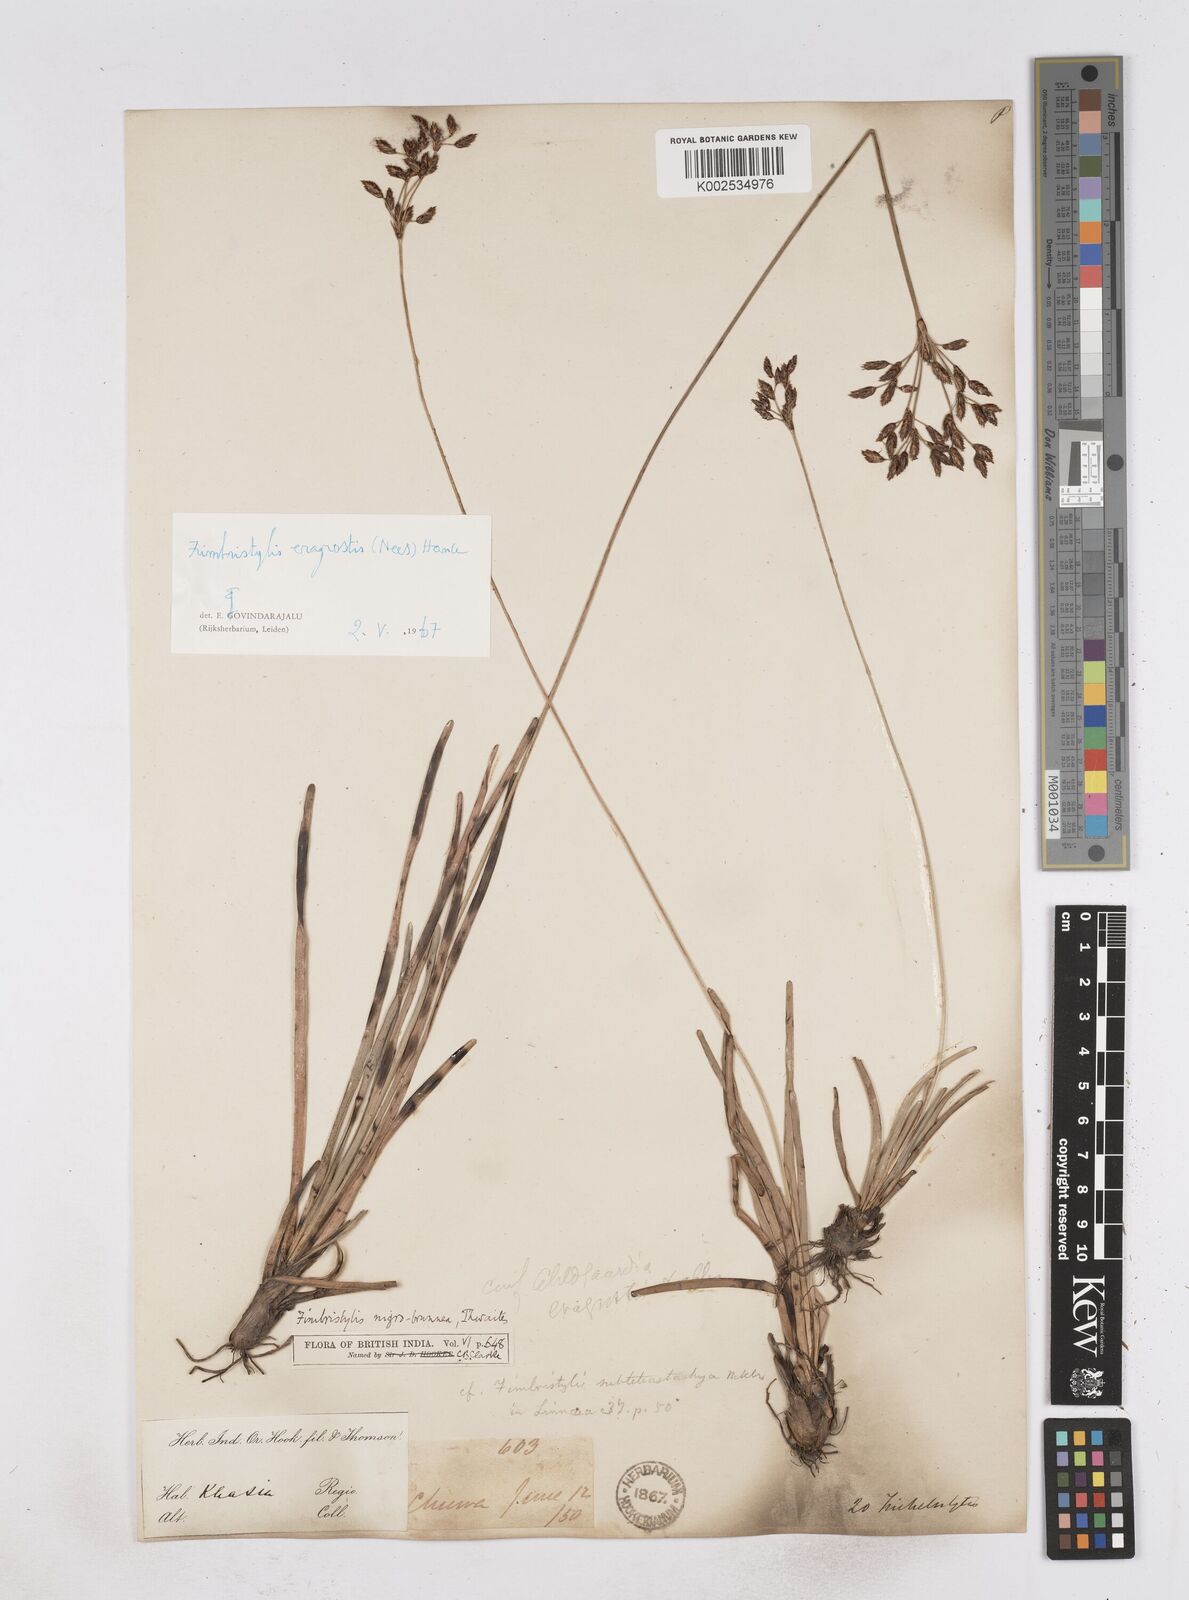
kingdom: Plantae
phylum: Tracheophyta
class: Liliopsida
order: Poales
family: Cyperaceae
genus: Fimbristylis
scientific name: Fimbristylis nigrobrunnea
